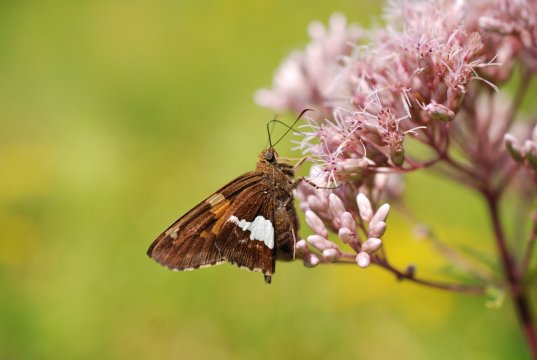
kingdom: Animalia
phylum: Arthropoda
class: Insecta
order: Lepidoptera
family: Hesperiidae
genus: Epargyreus
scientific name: Epargyreus clarus
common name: Silver-spotted Skipper
